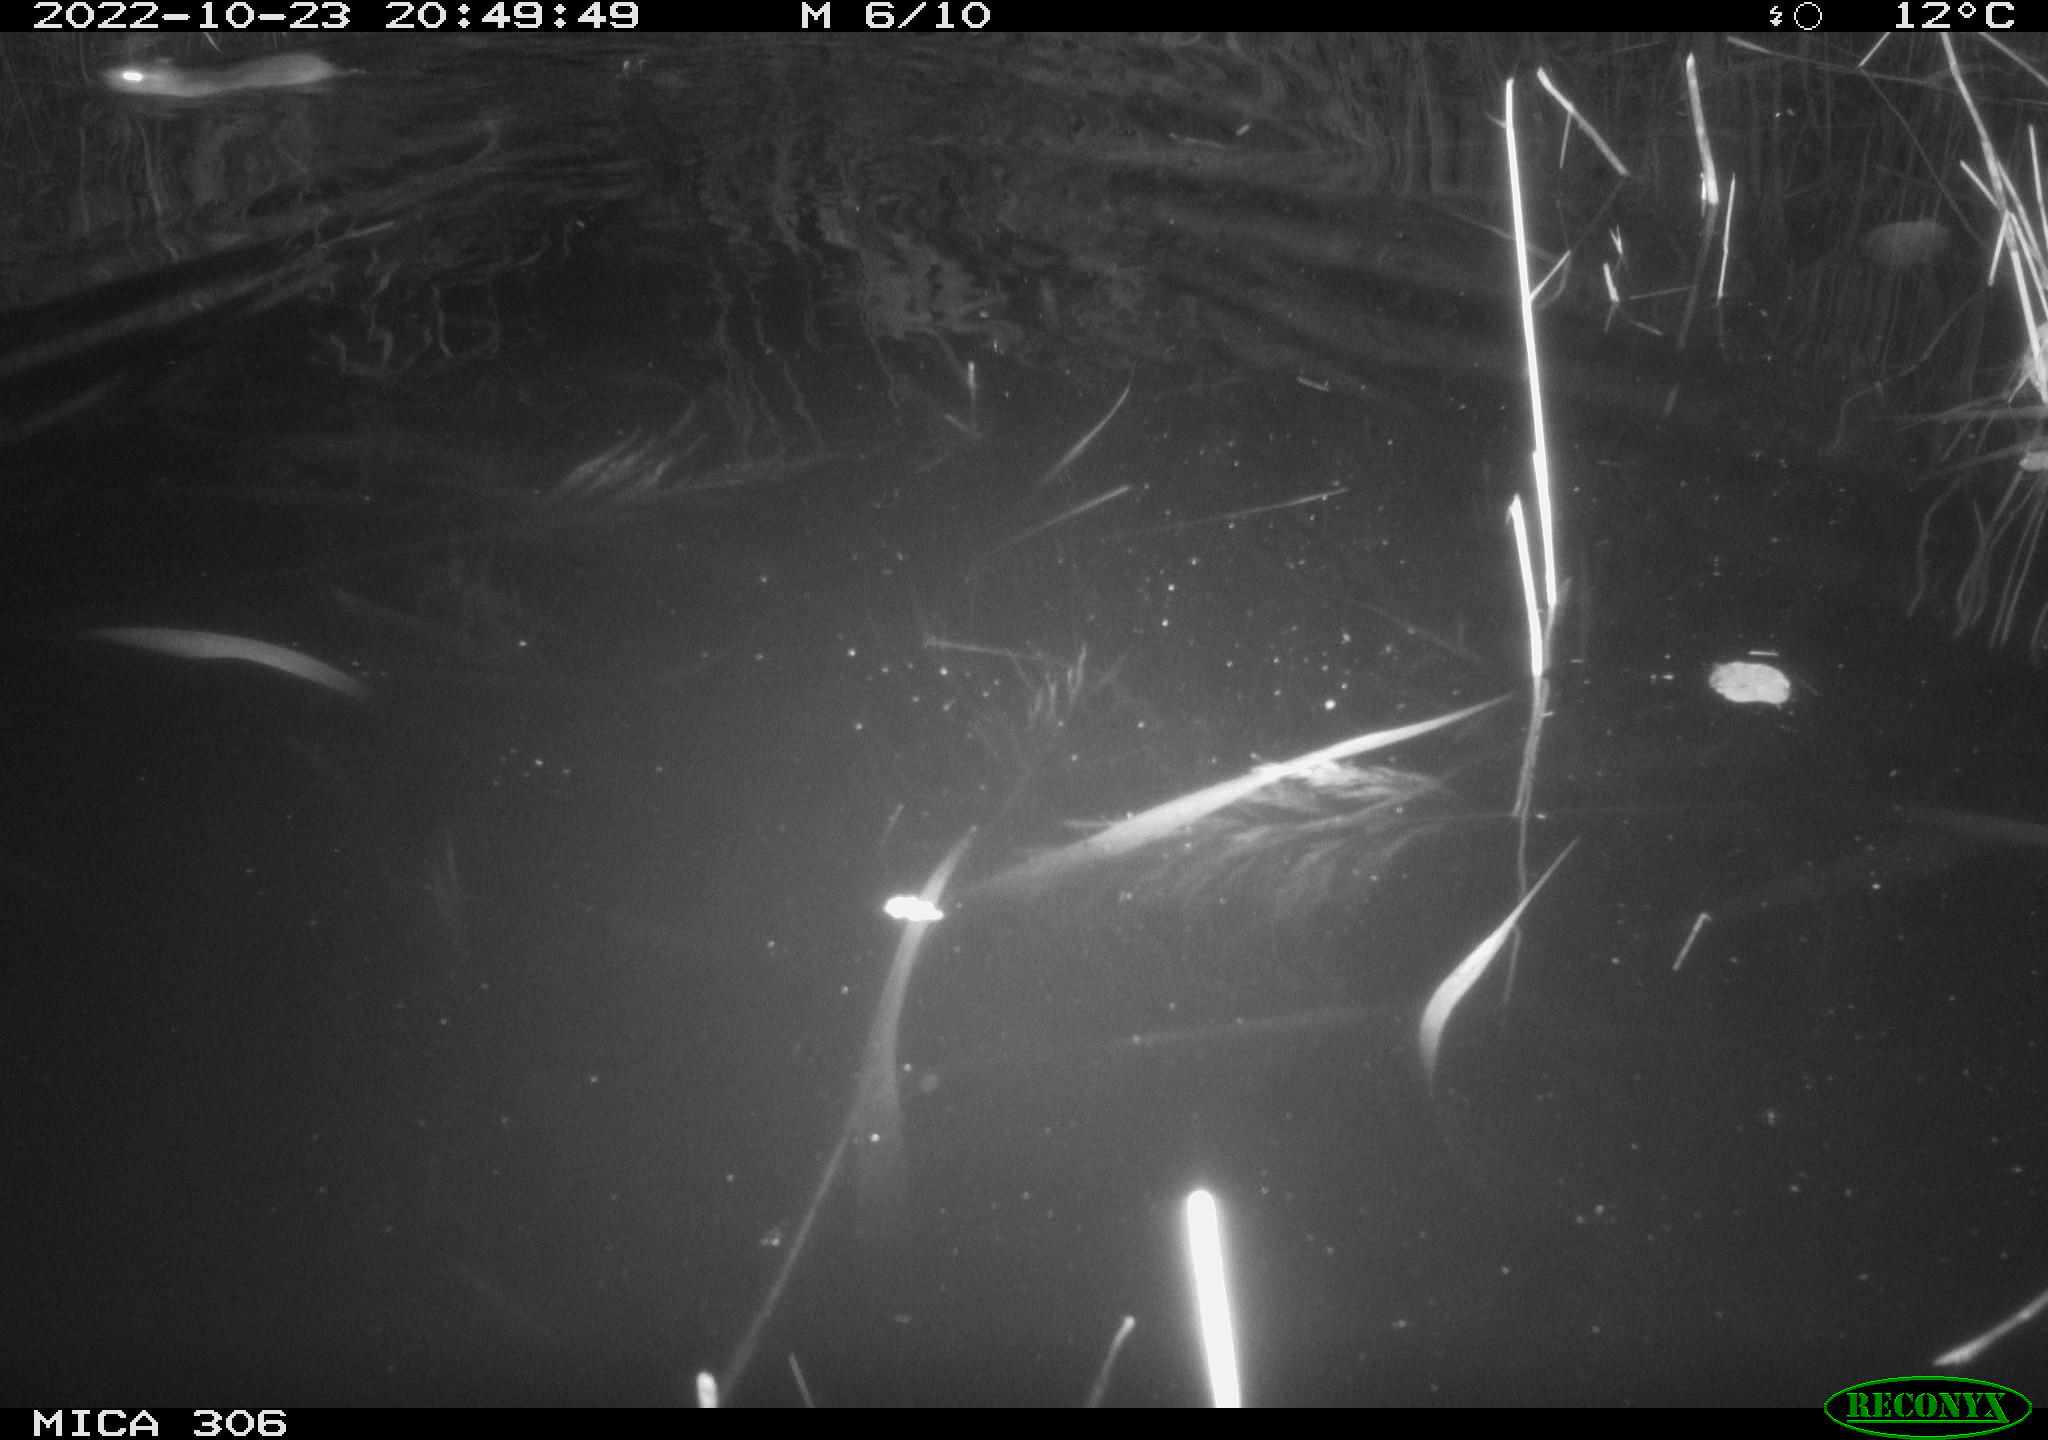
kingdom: Animalia
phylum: Chordata
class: Mammalia
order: Rodentia
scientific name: Rodentia
